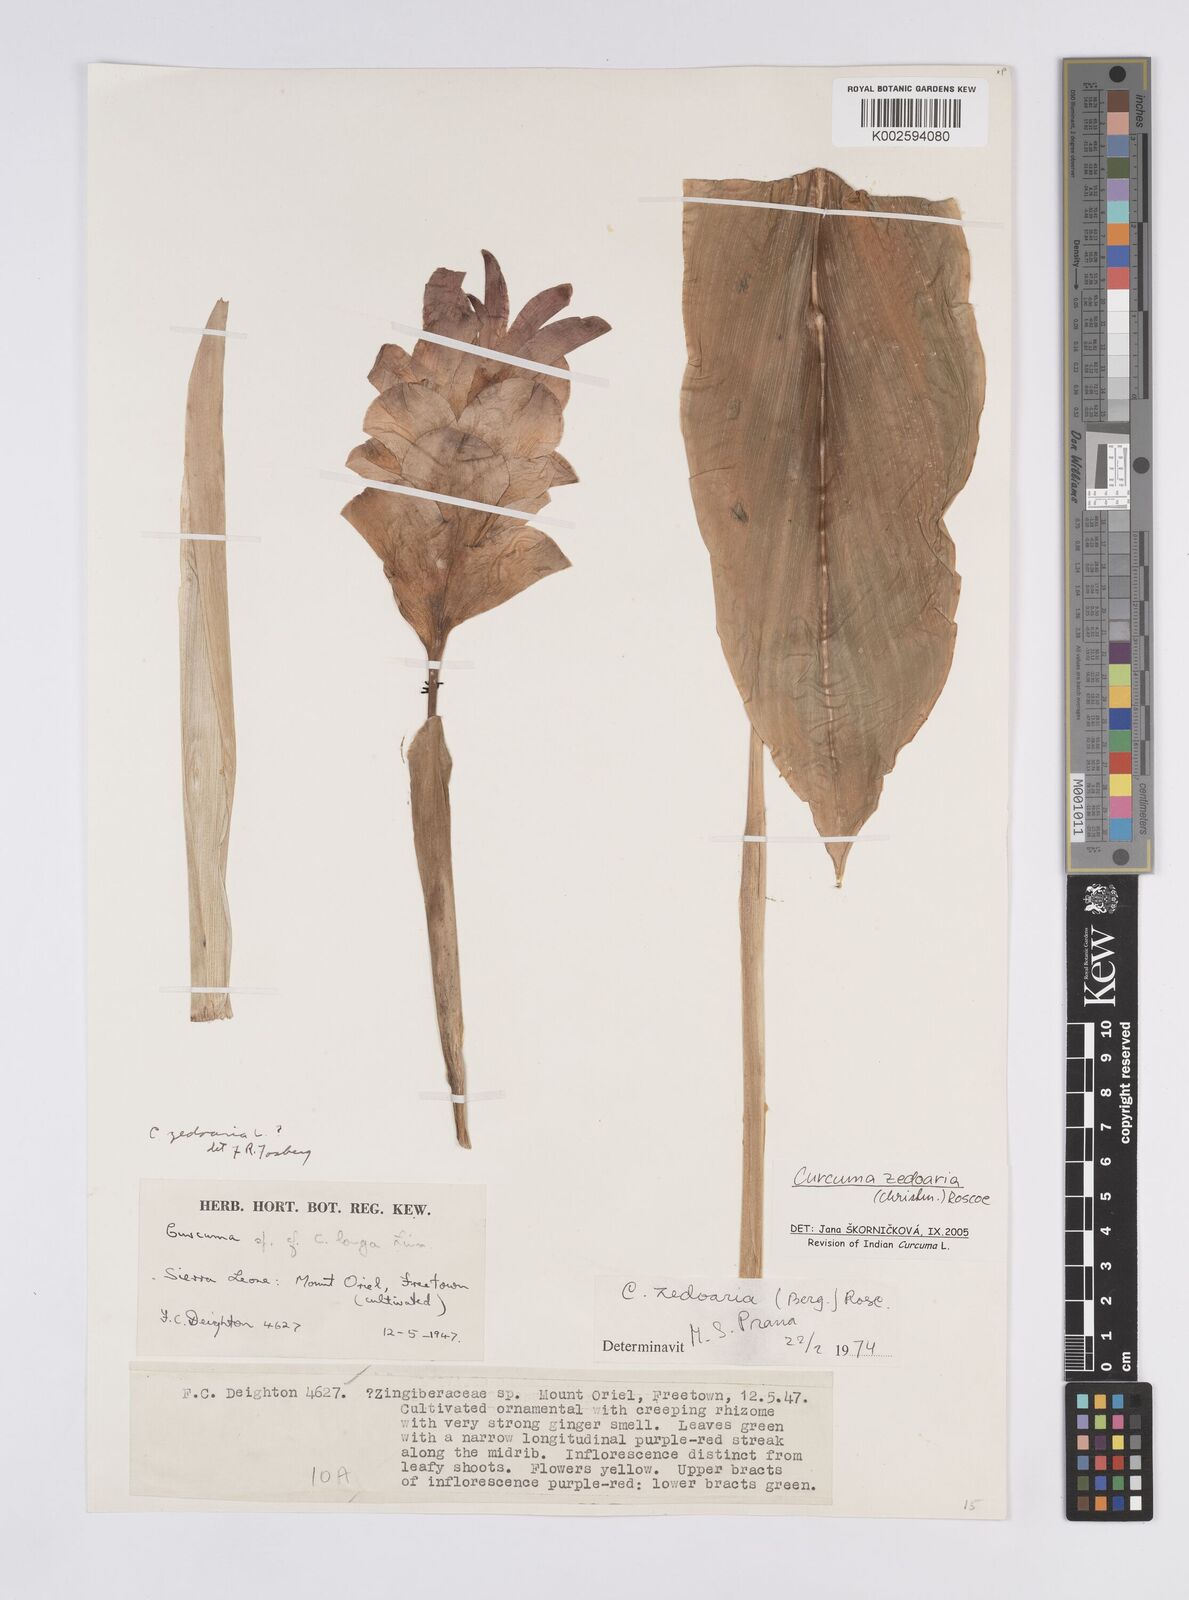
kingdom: Plantae
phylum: Tracheophyta
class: Liliopsida
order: Zingiberales
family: Zingiberaceae
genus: Curcuma
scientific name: Curcuma zedoaria
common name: Zedoary
